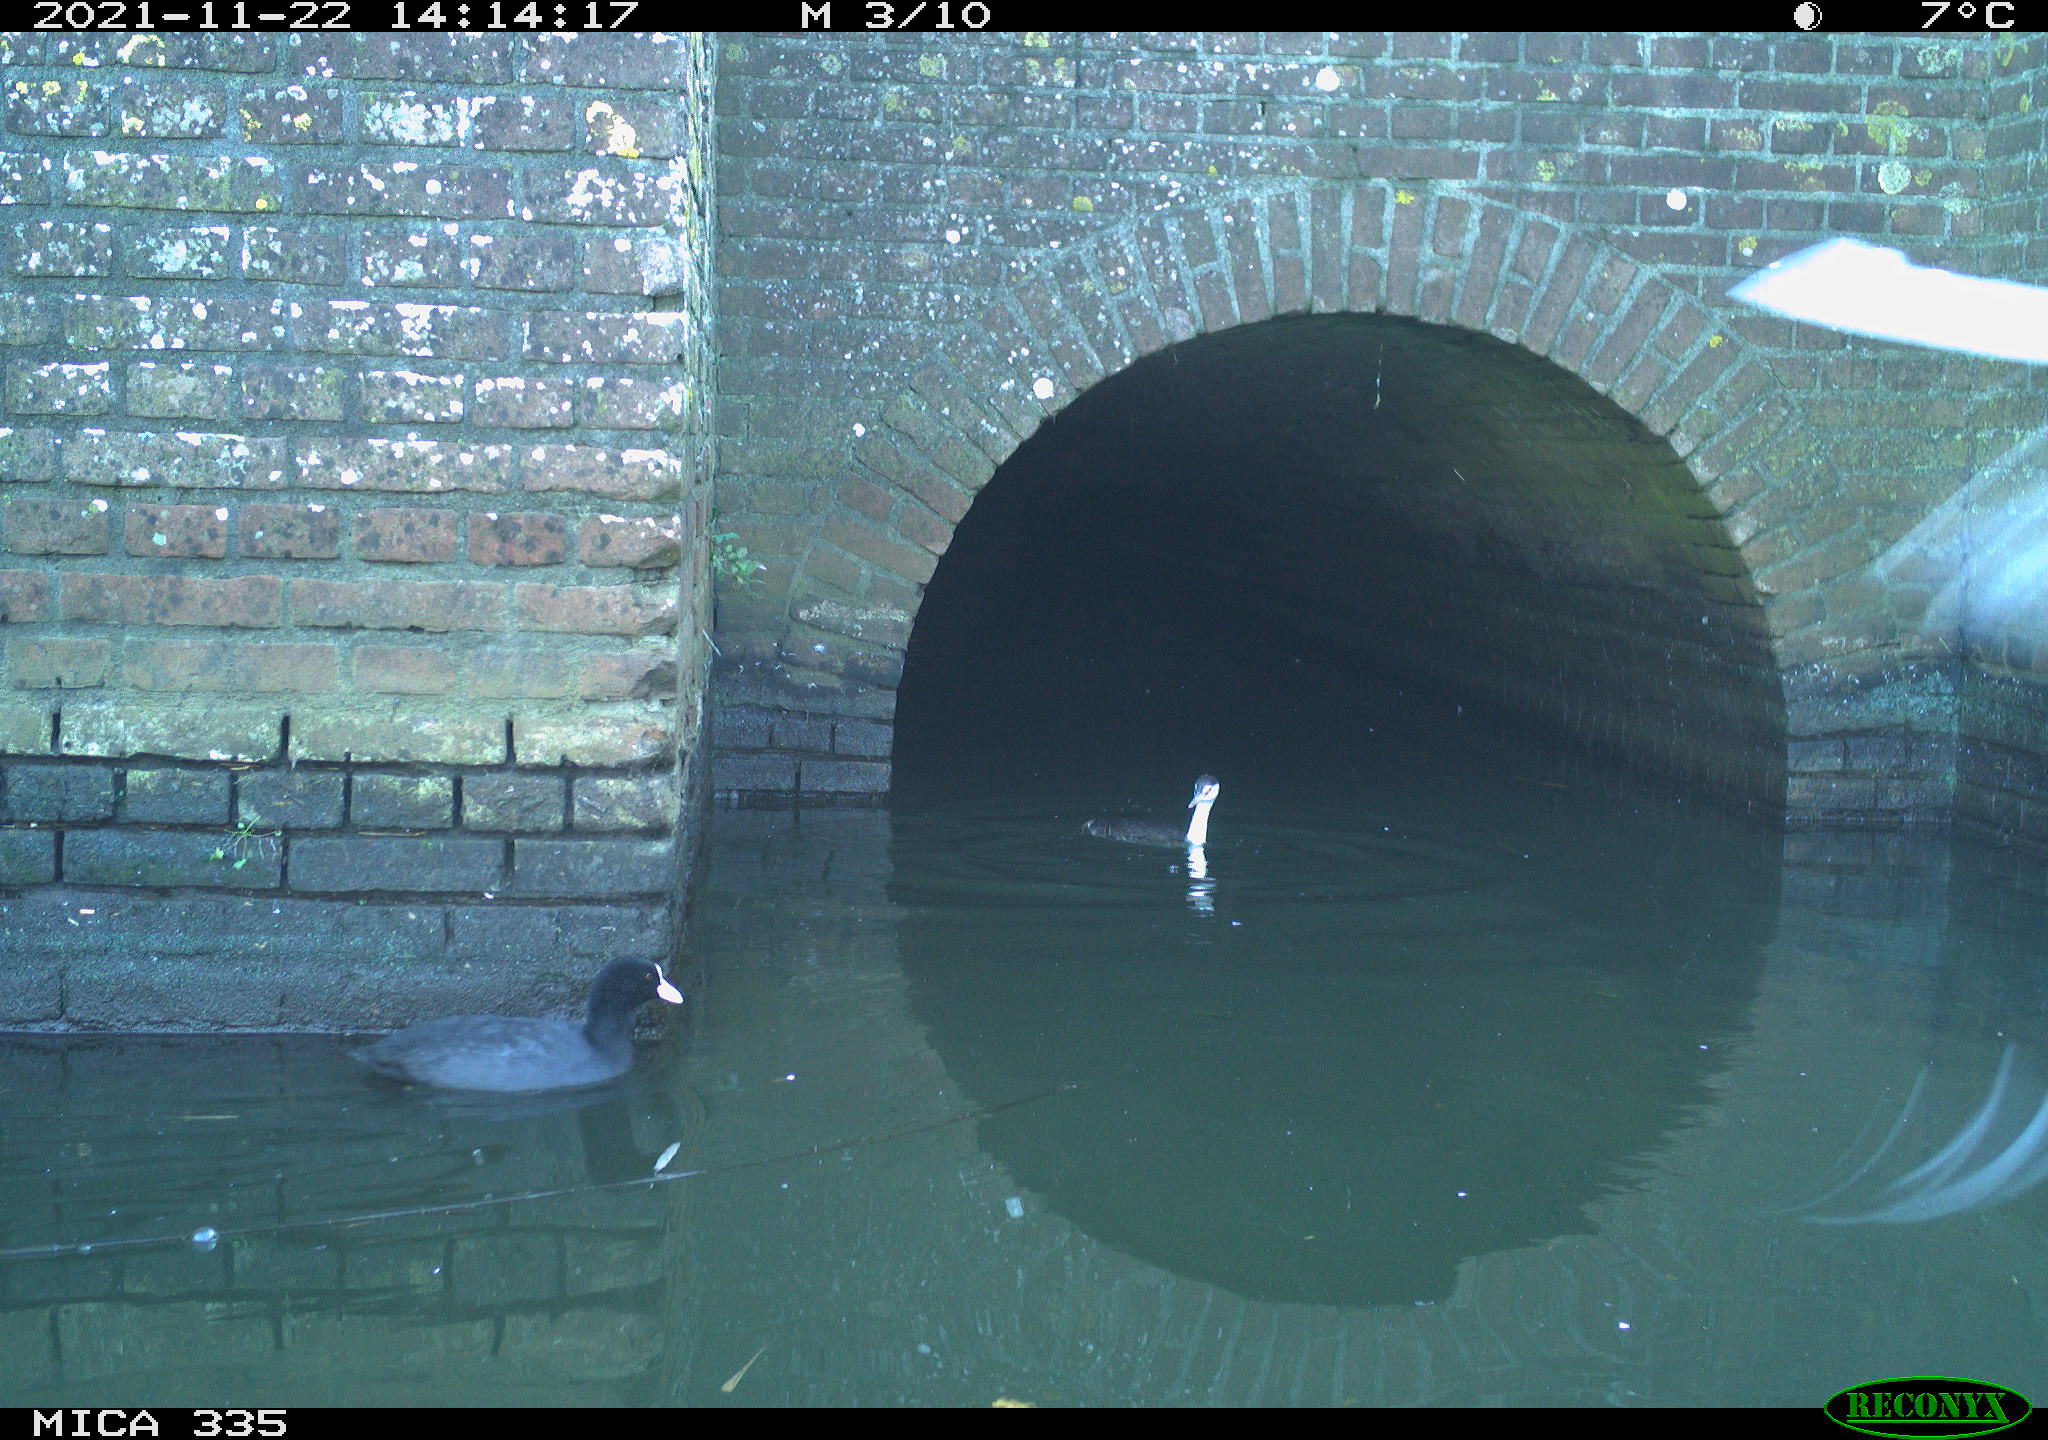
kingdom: Animalia
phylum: Chordata
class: Aves
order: Gruiformes
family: Rallidae
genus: Fulica
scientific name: Fulica atra
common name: Eurasian coot
